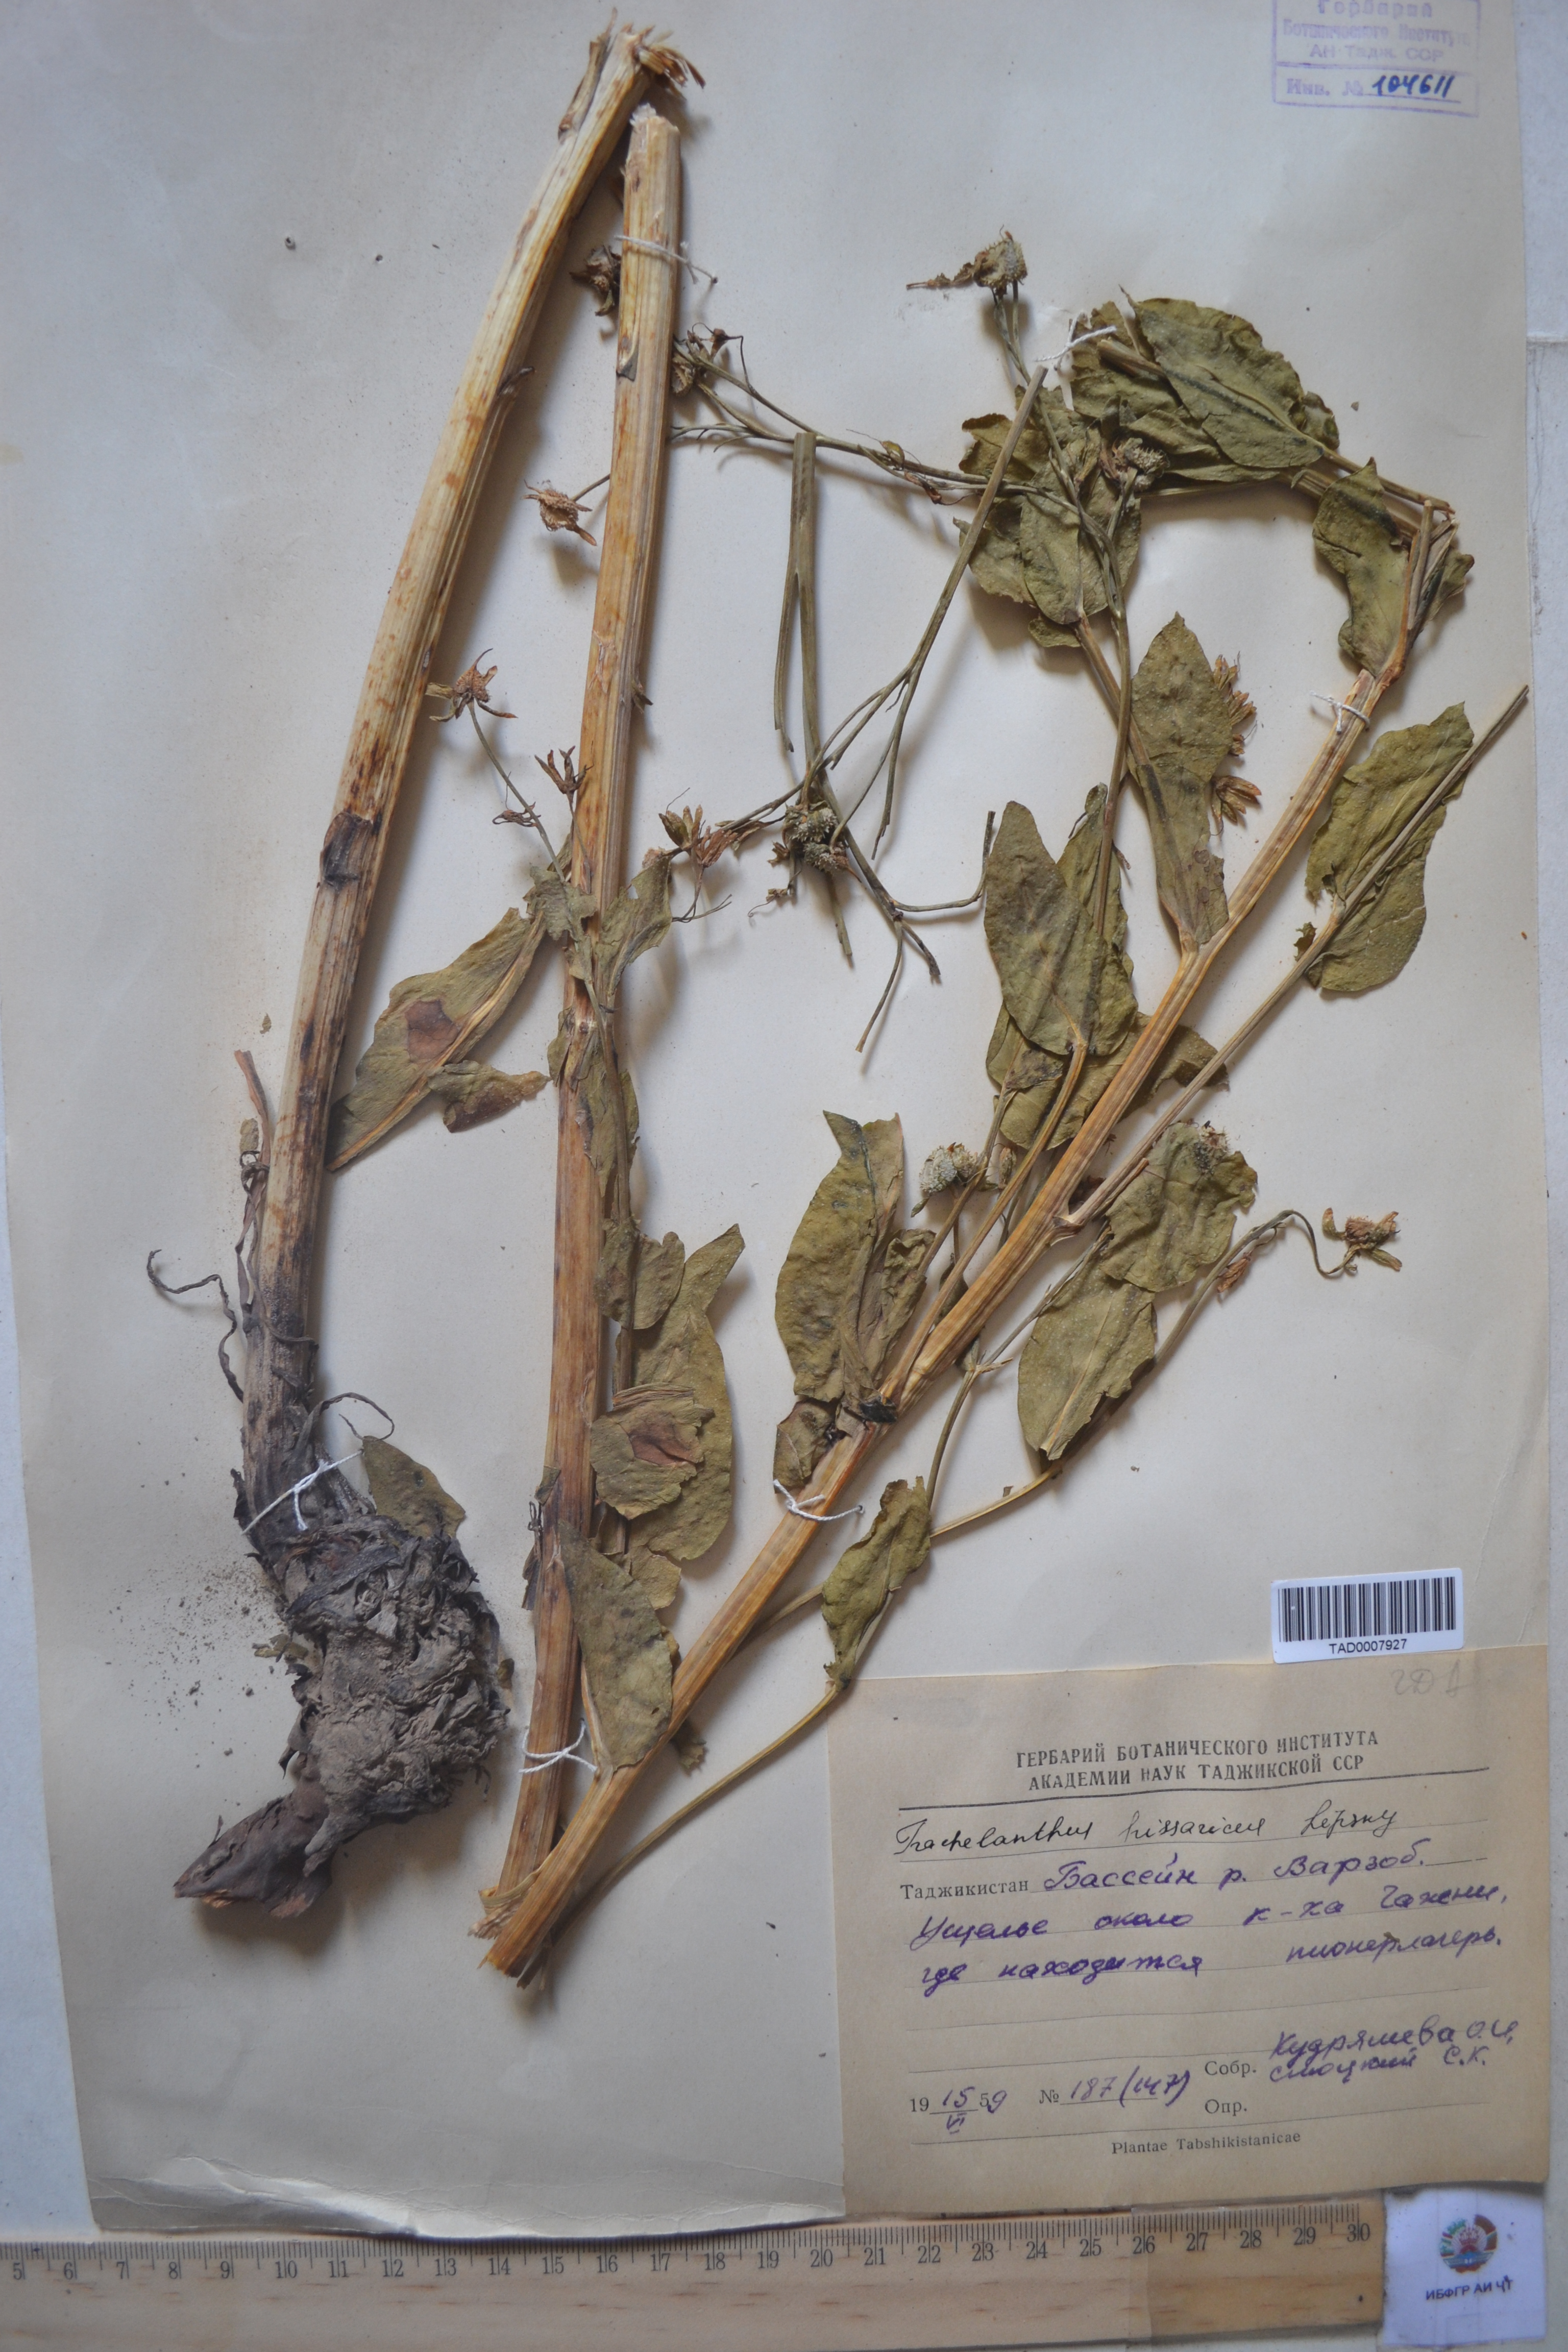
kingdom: Plantae
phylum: Tracheophyta
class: Magnoliopsida
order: Boraginales
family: Boraginaceae
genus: Lindelofia
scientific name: Lindelofia hissarica
